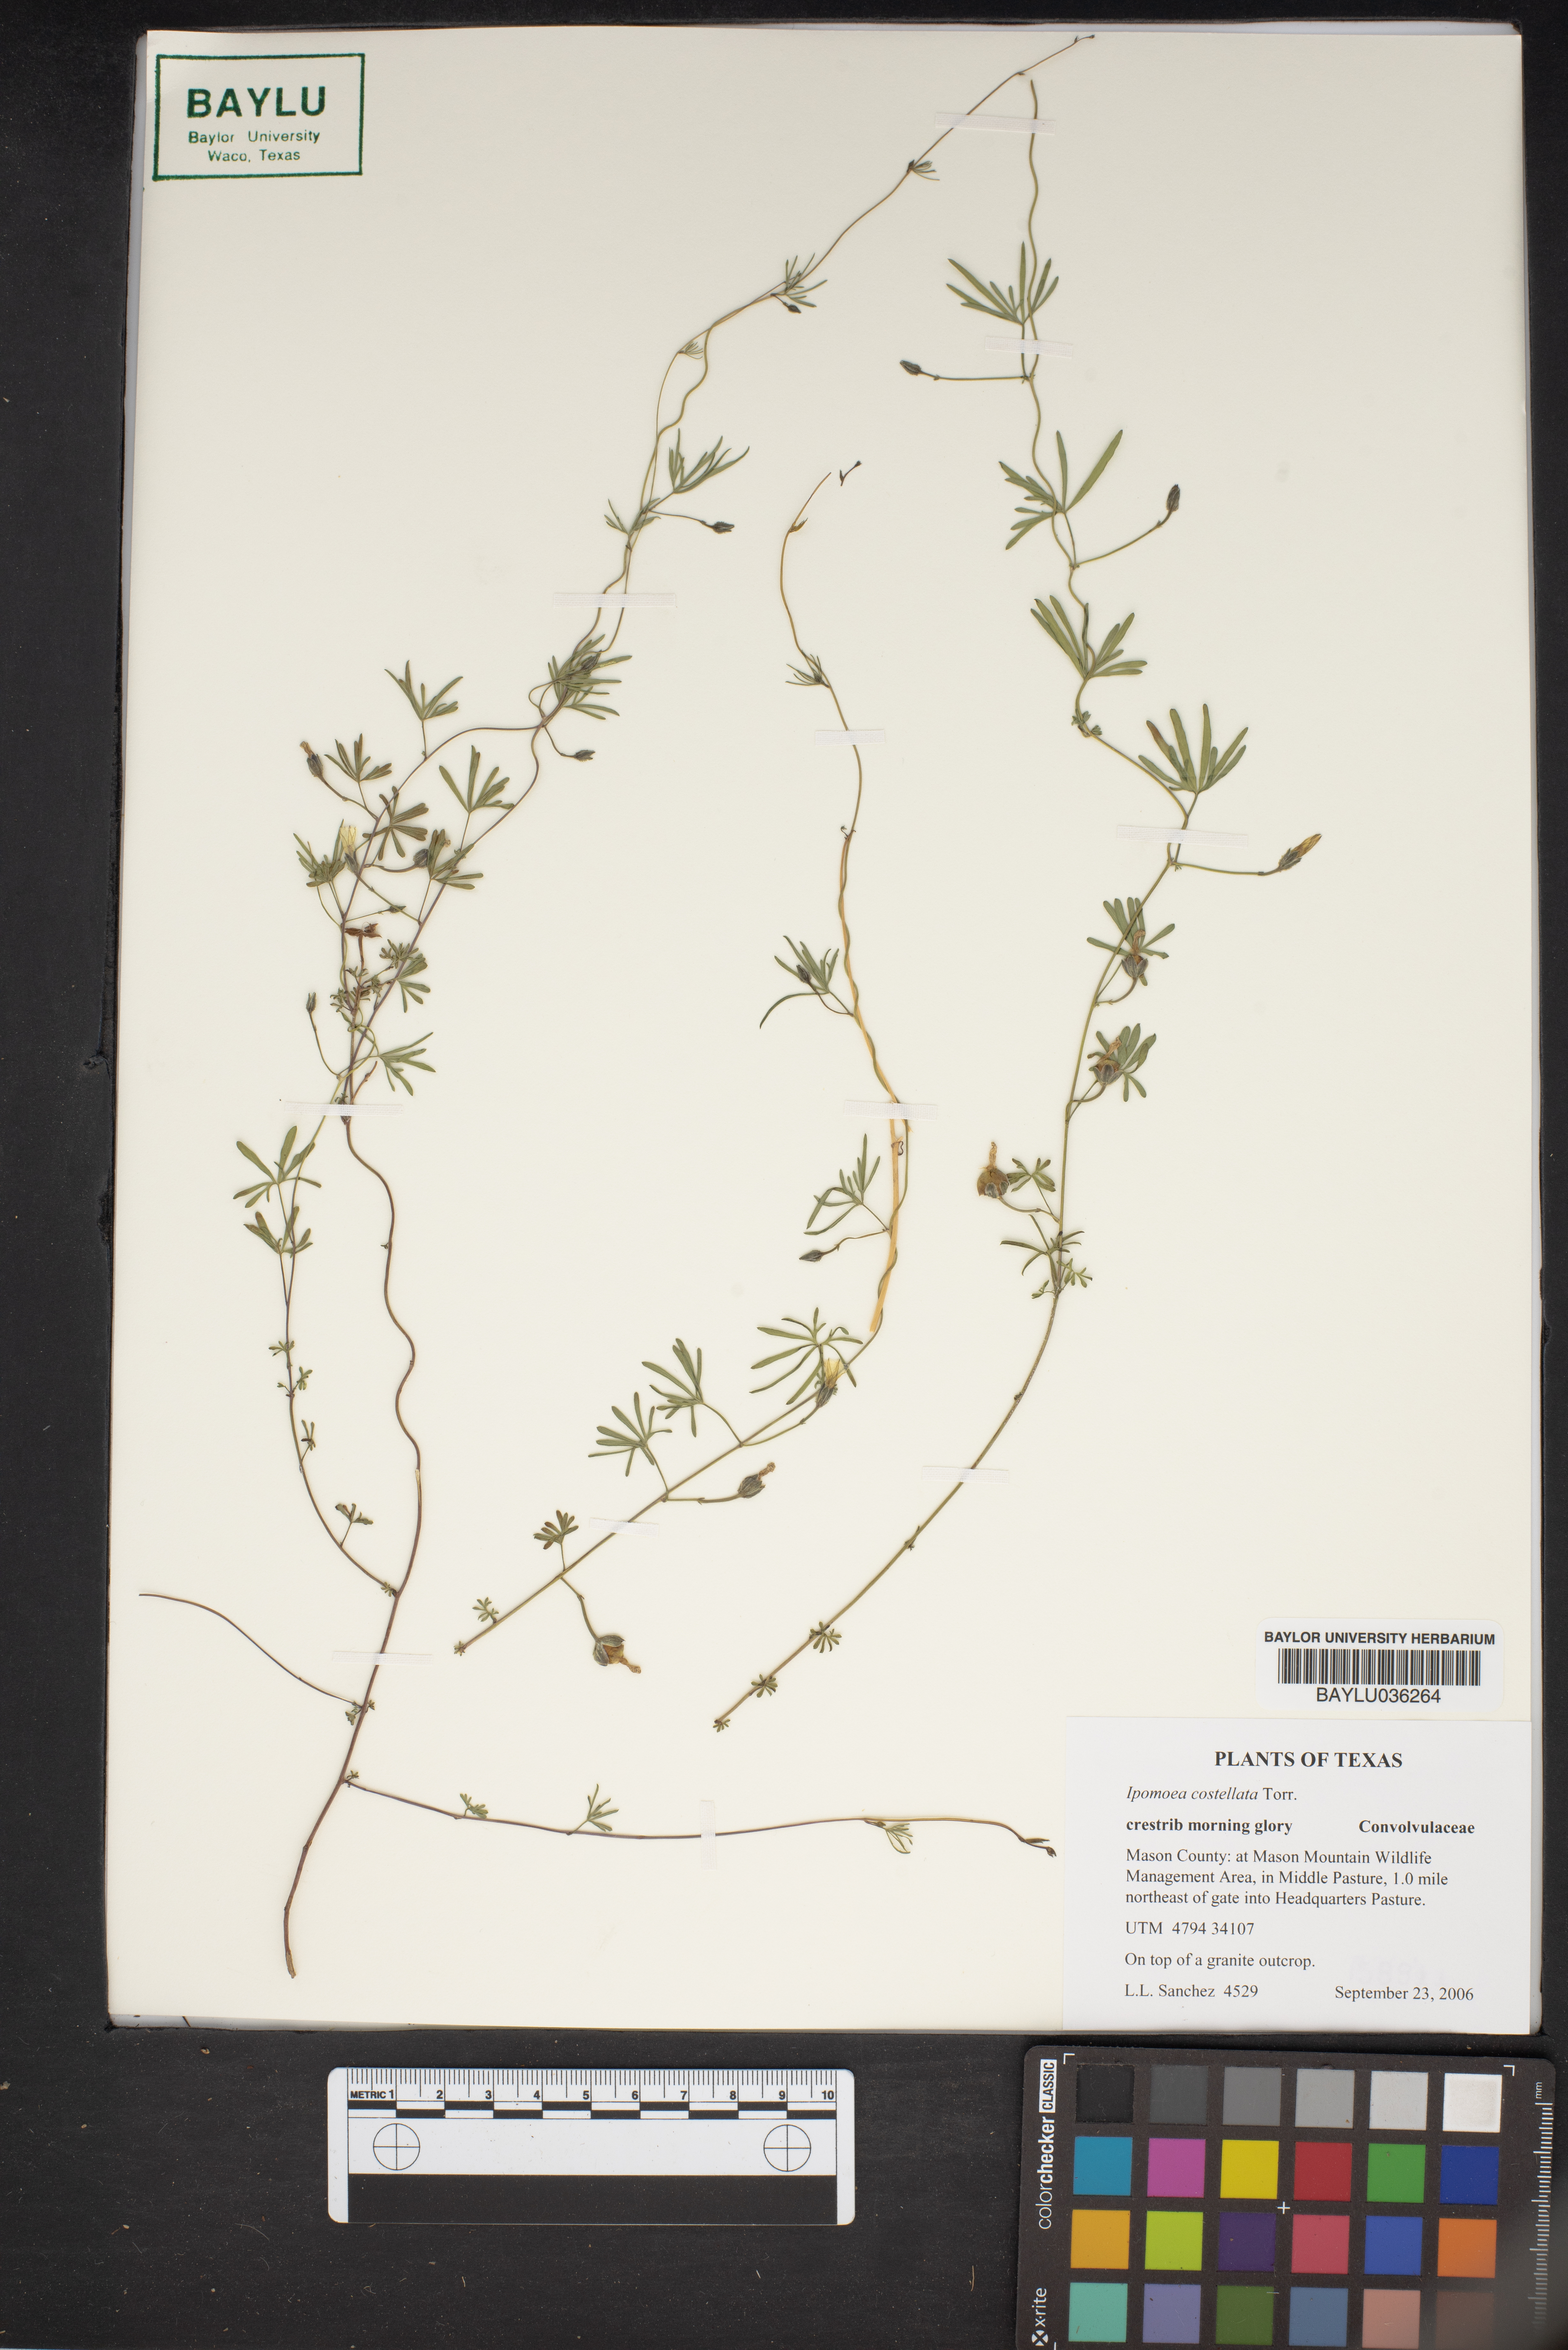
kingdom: Plantae
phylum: Tracheophyta
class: Magnoliopsida
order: Solanales
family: Convolvulaceae
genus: Ipomoea
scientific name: Ipomoea costellata
